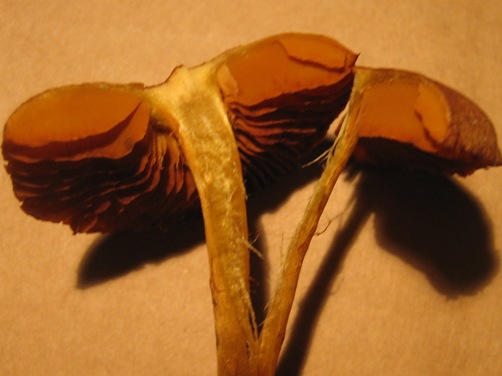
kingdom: Fungi
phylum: Basidiomycota
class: Agaricomycetes
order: Agaricales
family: Cortinariaceae
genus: Cortinarius
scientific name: Cortinarius malicorius
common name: grønkødet slørhat
